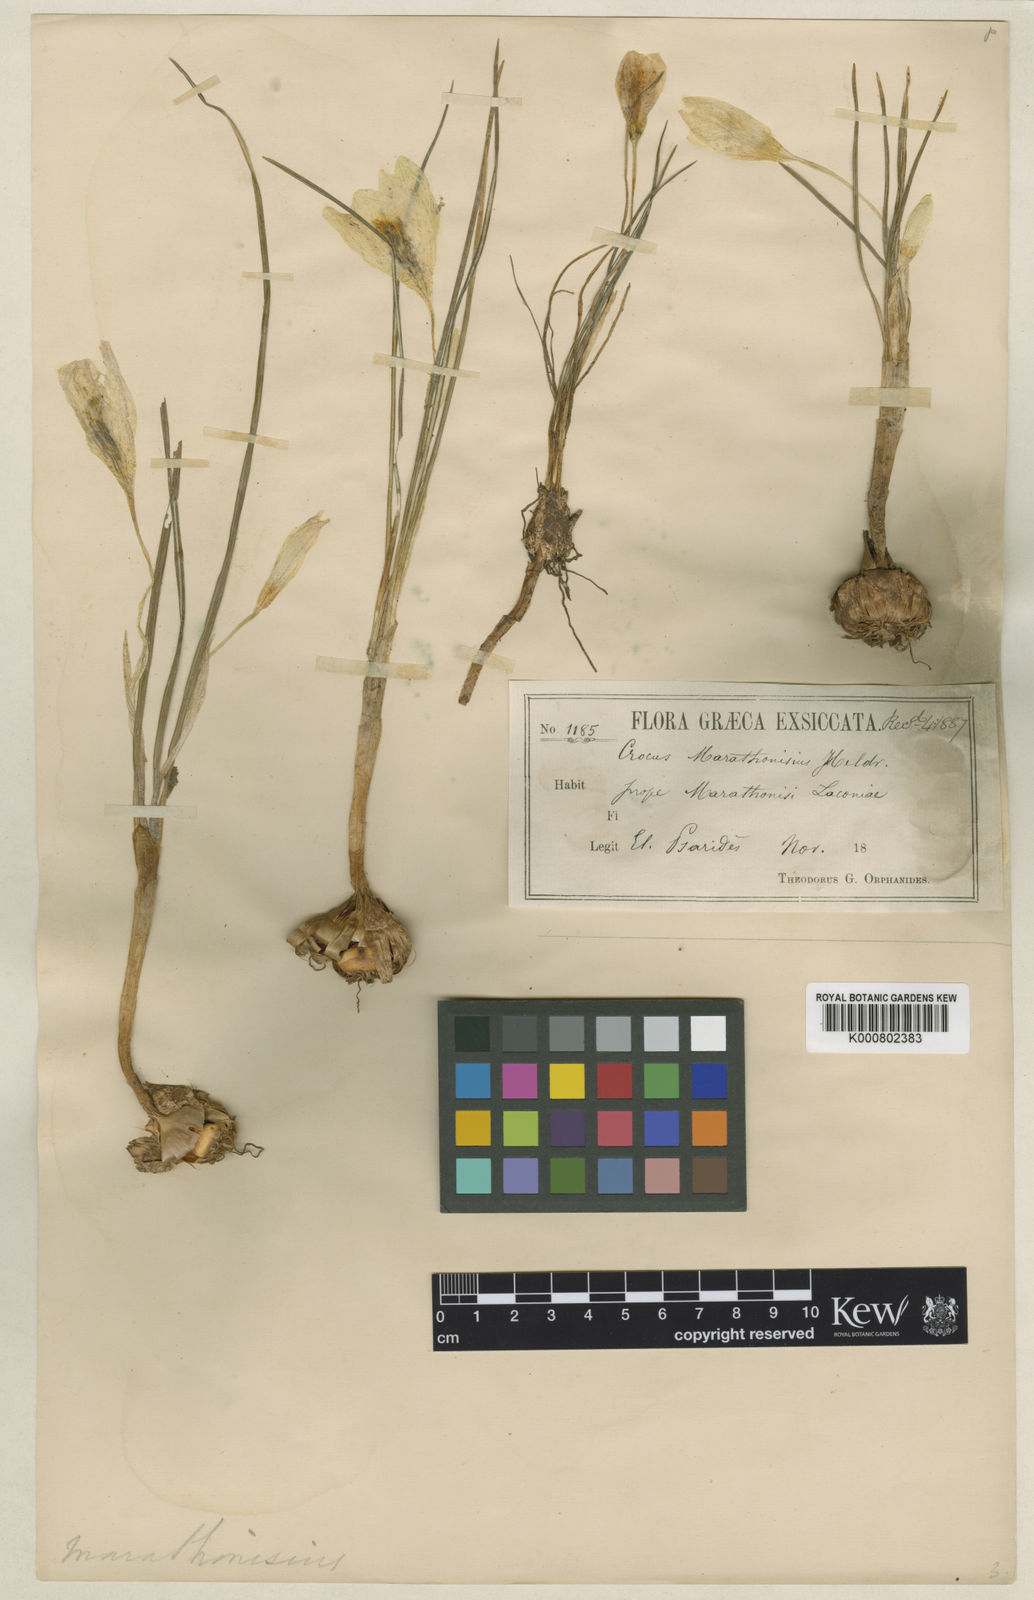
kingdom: Plantae
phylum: Tracheophyta
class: Liliopsida
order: Asparagales
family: Iridaceae
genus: Crocus
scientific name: Crocus boryi
